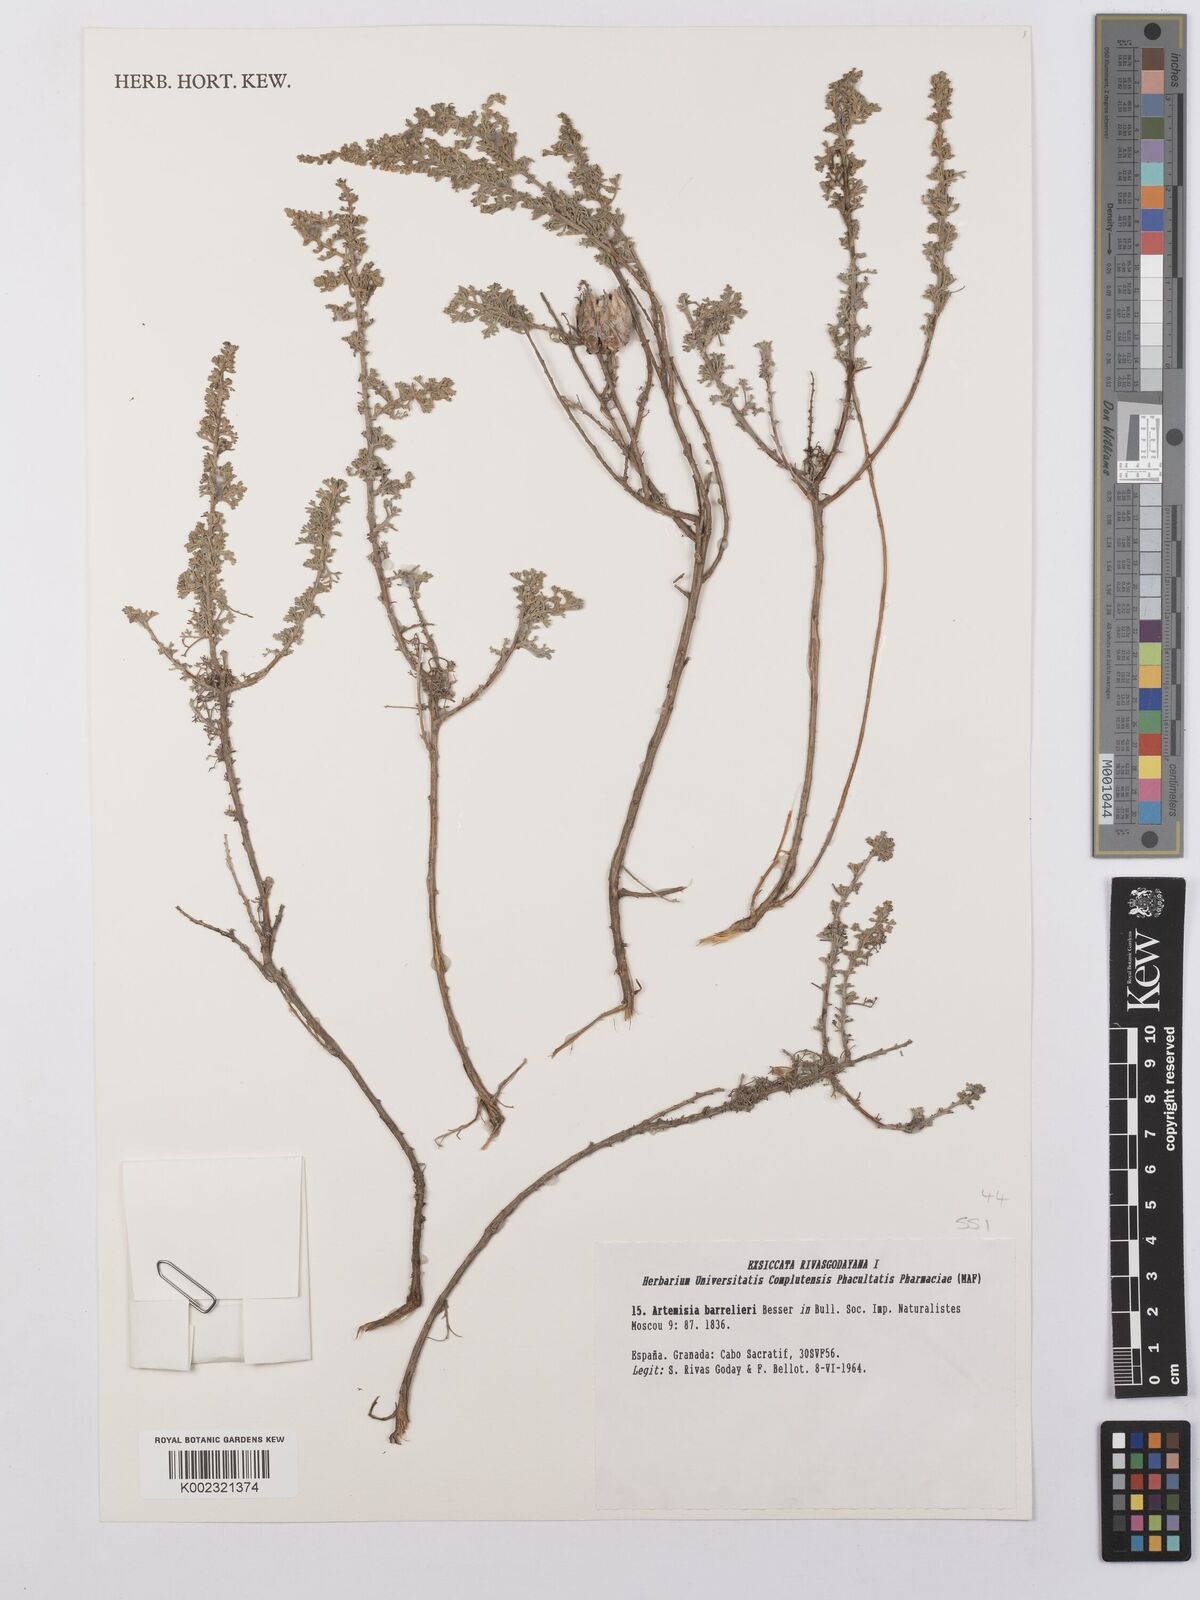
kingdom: Plantae
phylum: Tracheophyta
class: Magnoliopsida
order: Asterales
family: Asteraceae
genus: Artemisia
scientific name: Artemisia barrelieri
